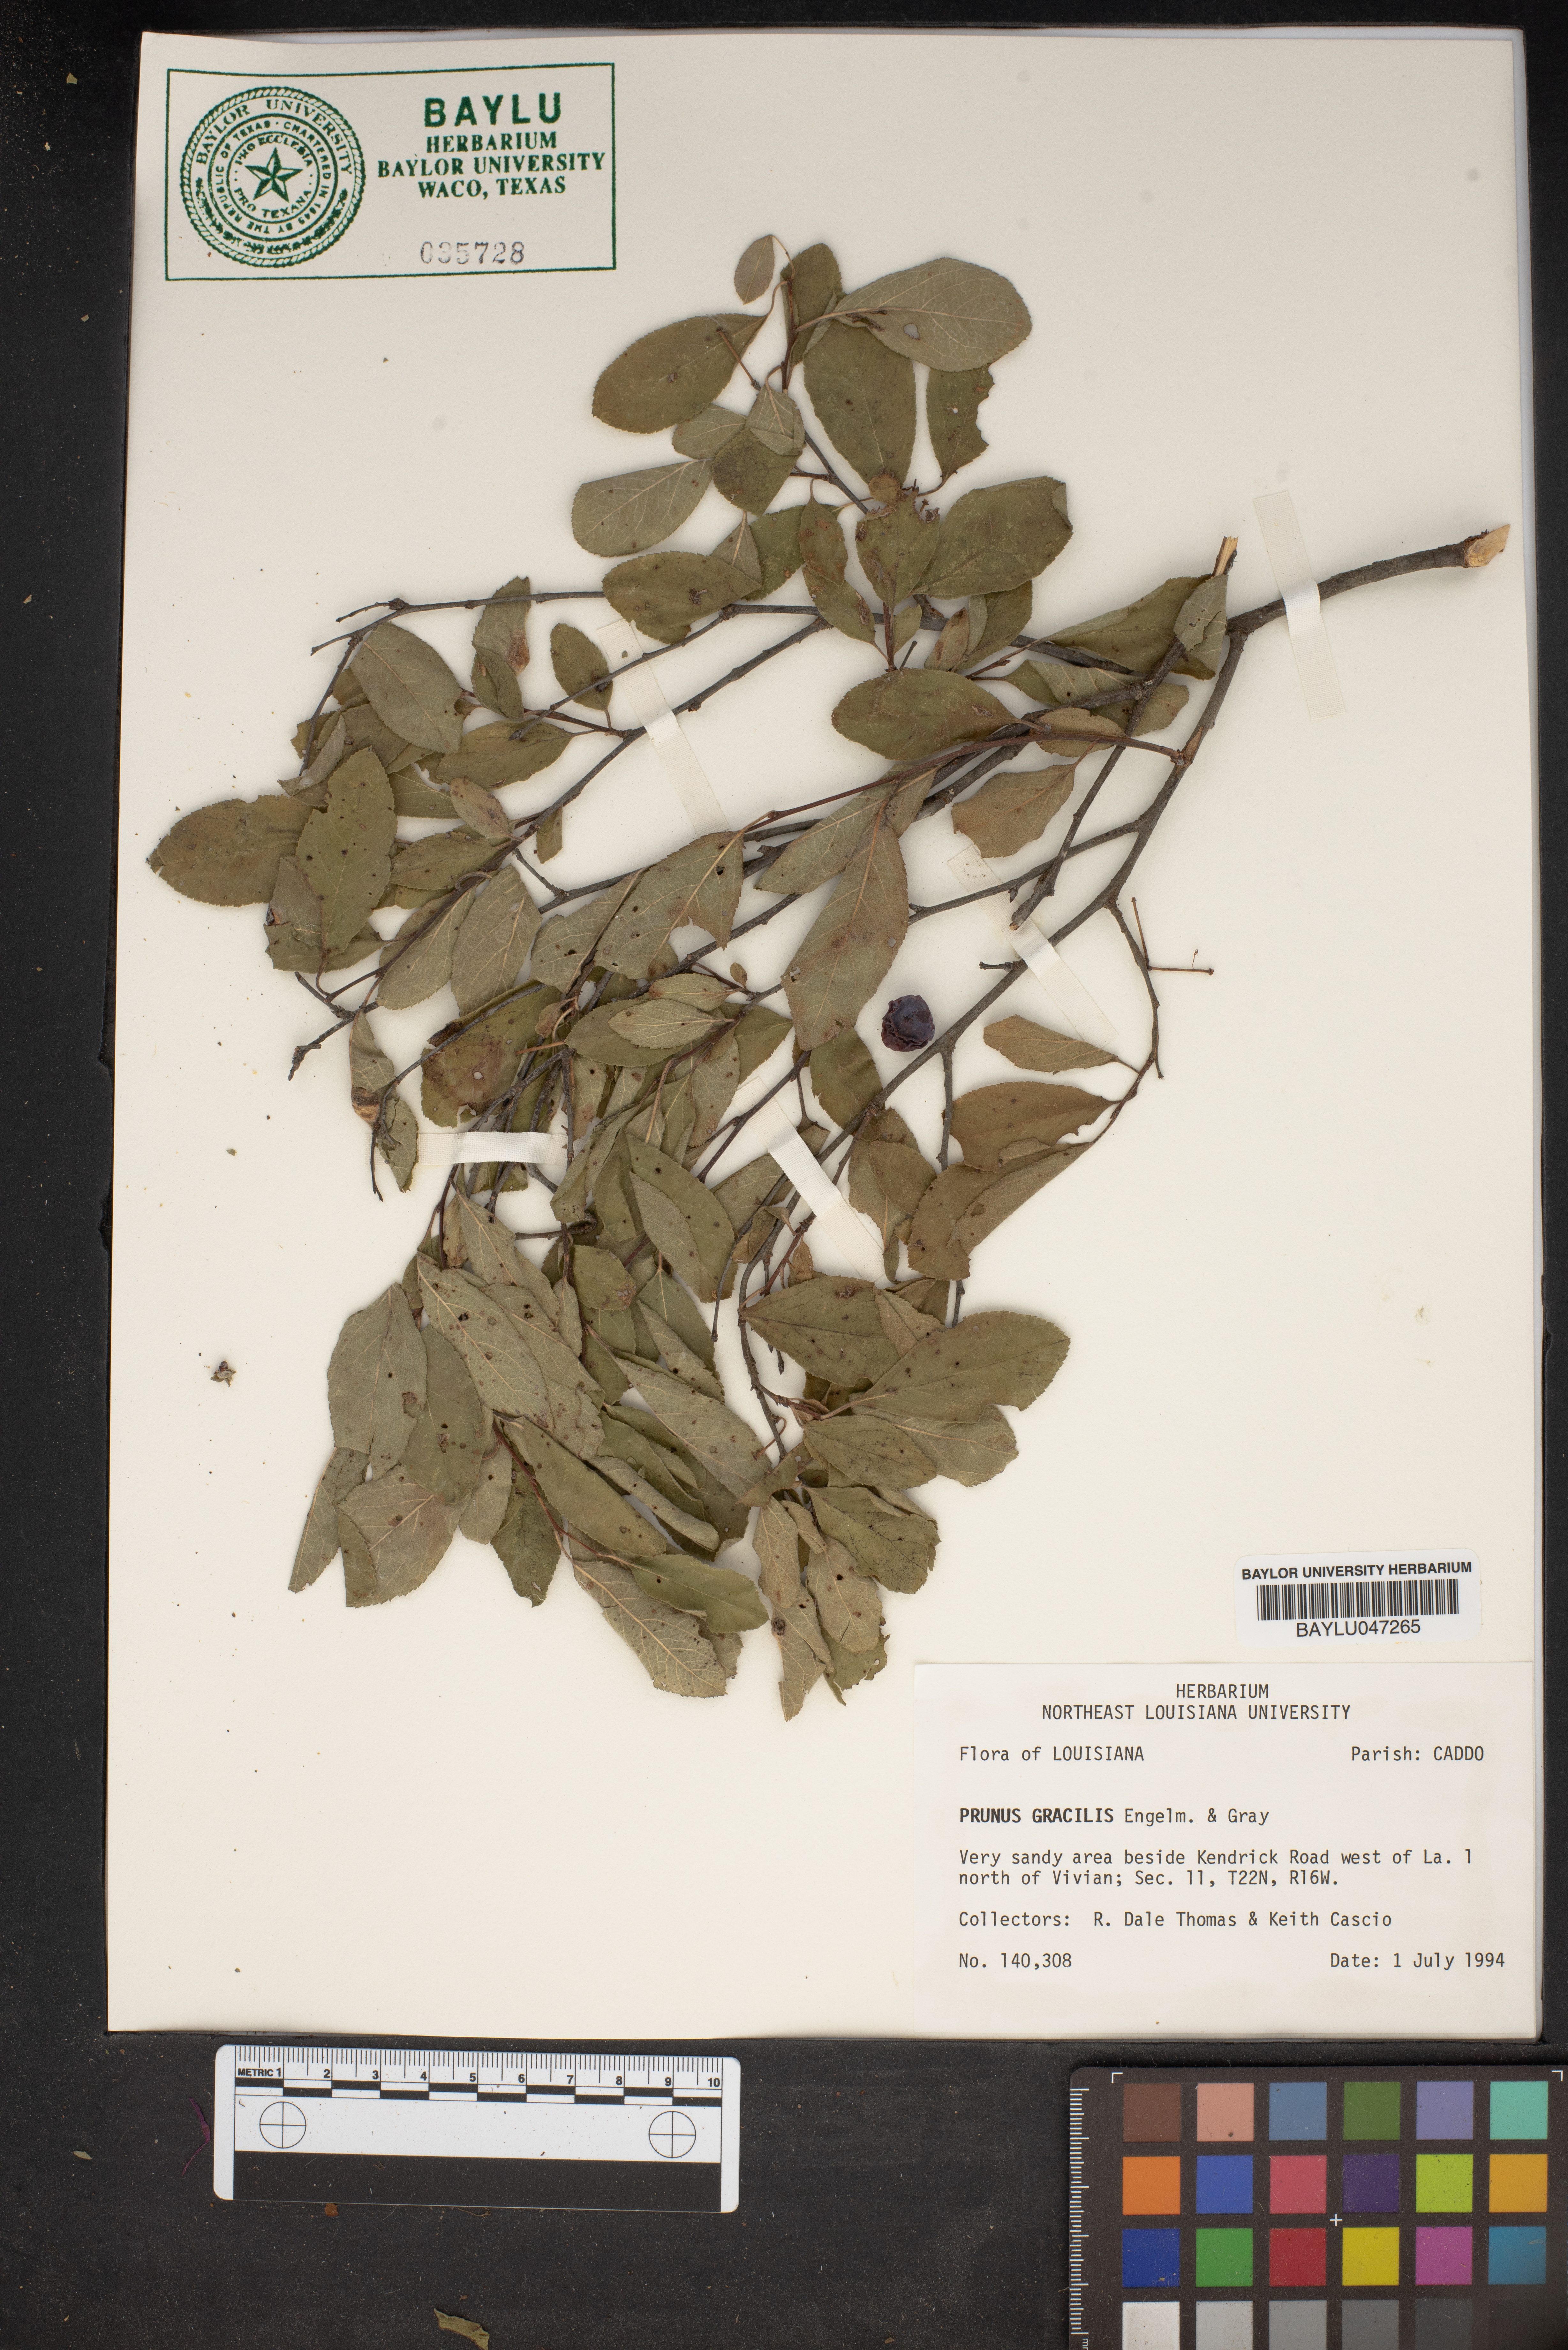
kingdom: Plantae
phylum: Tracheophyta
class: Magnoliopsida
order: Rosales
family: Rosaceae
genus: Prunus
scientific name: Prunus gracilis
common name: Oklahoma plum
